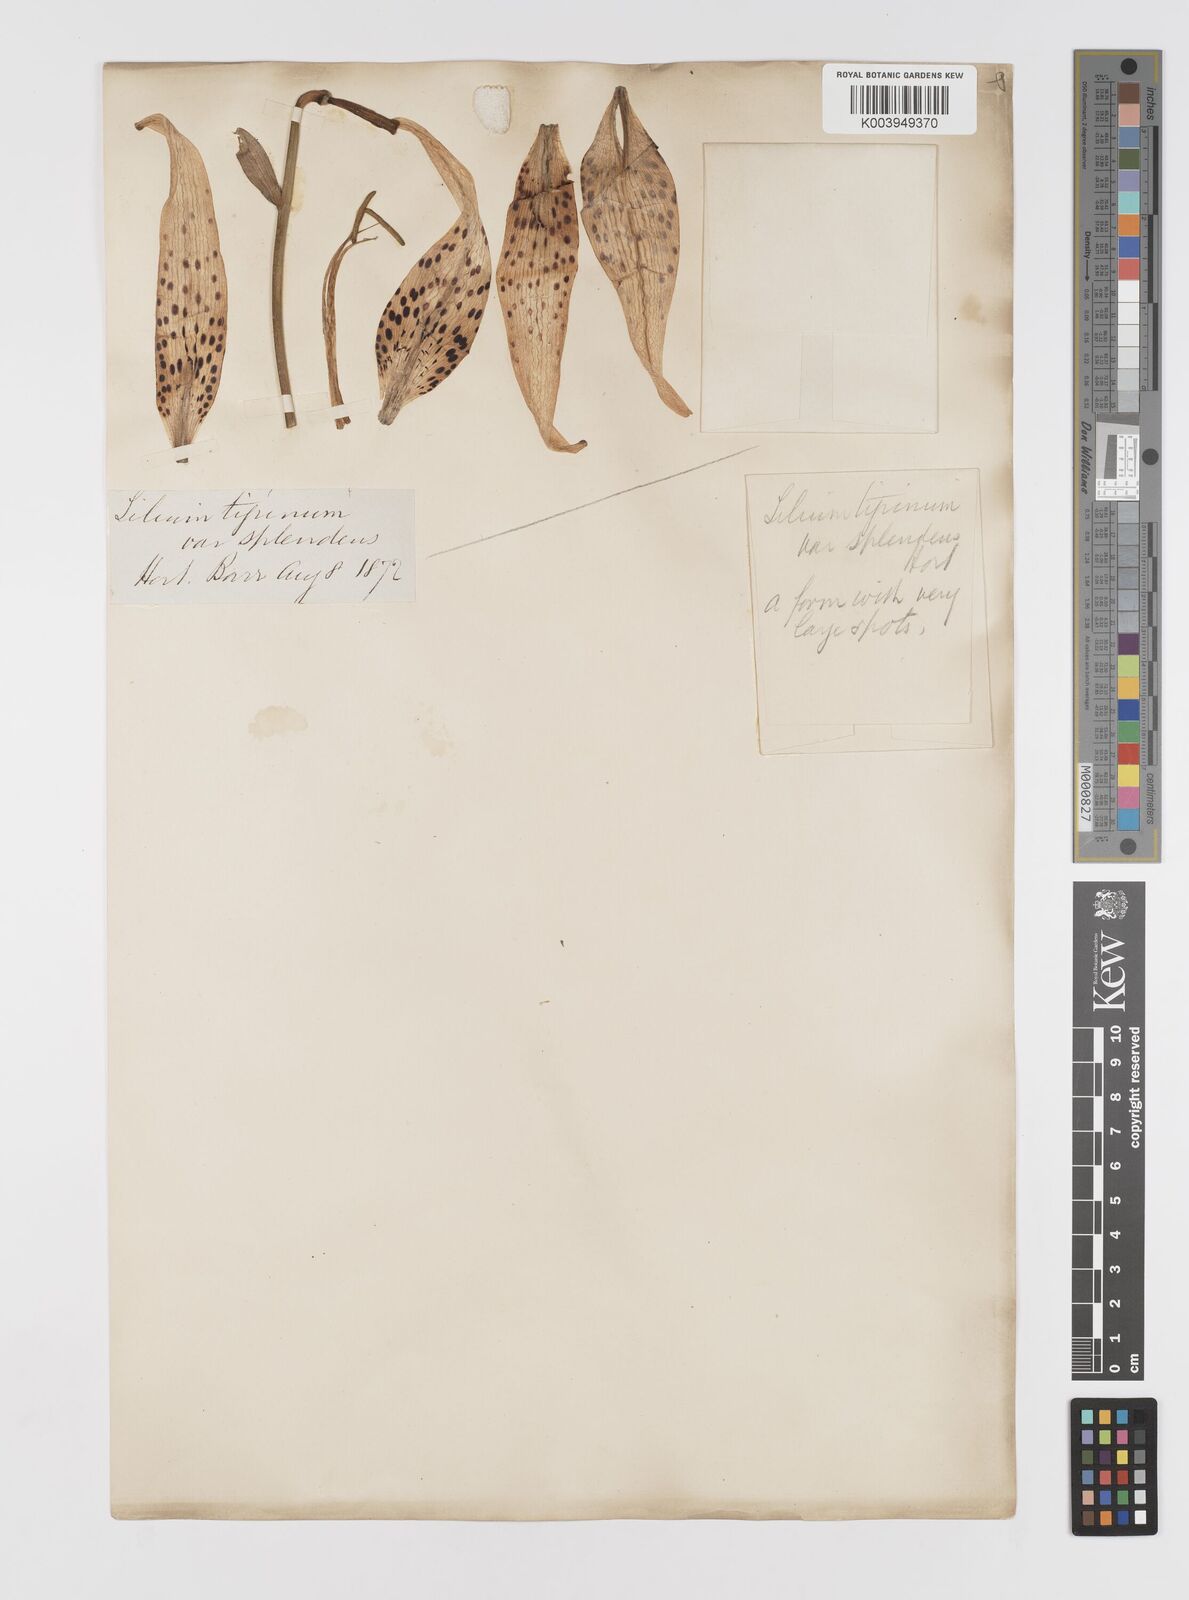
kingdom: Plantae
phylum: Tracheophyta
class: Liliopsida
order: Liliales
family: Liliaceae
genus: Lilium
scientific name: Lilium lancifolium
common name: Tiger lily
